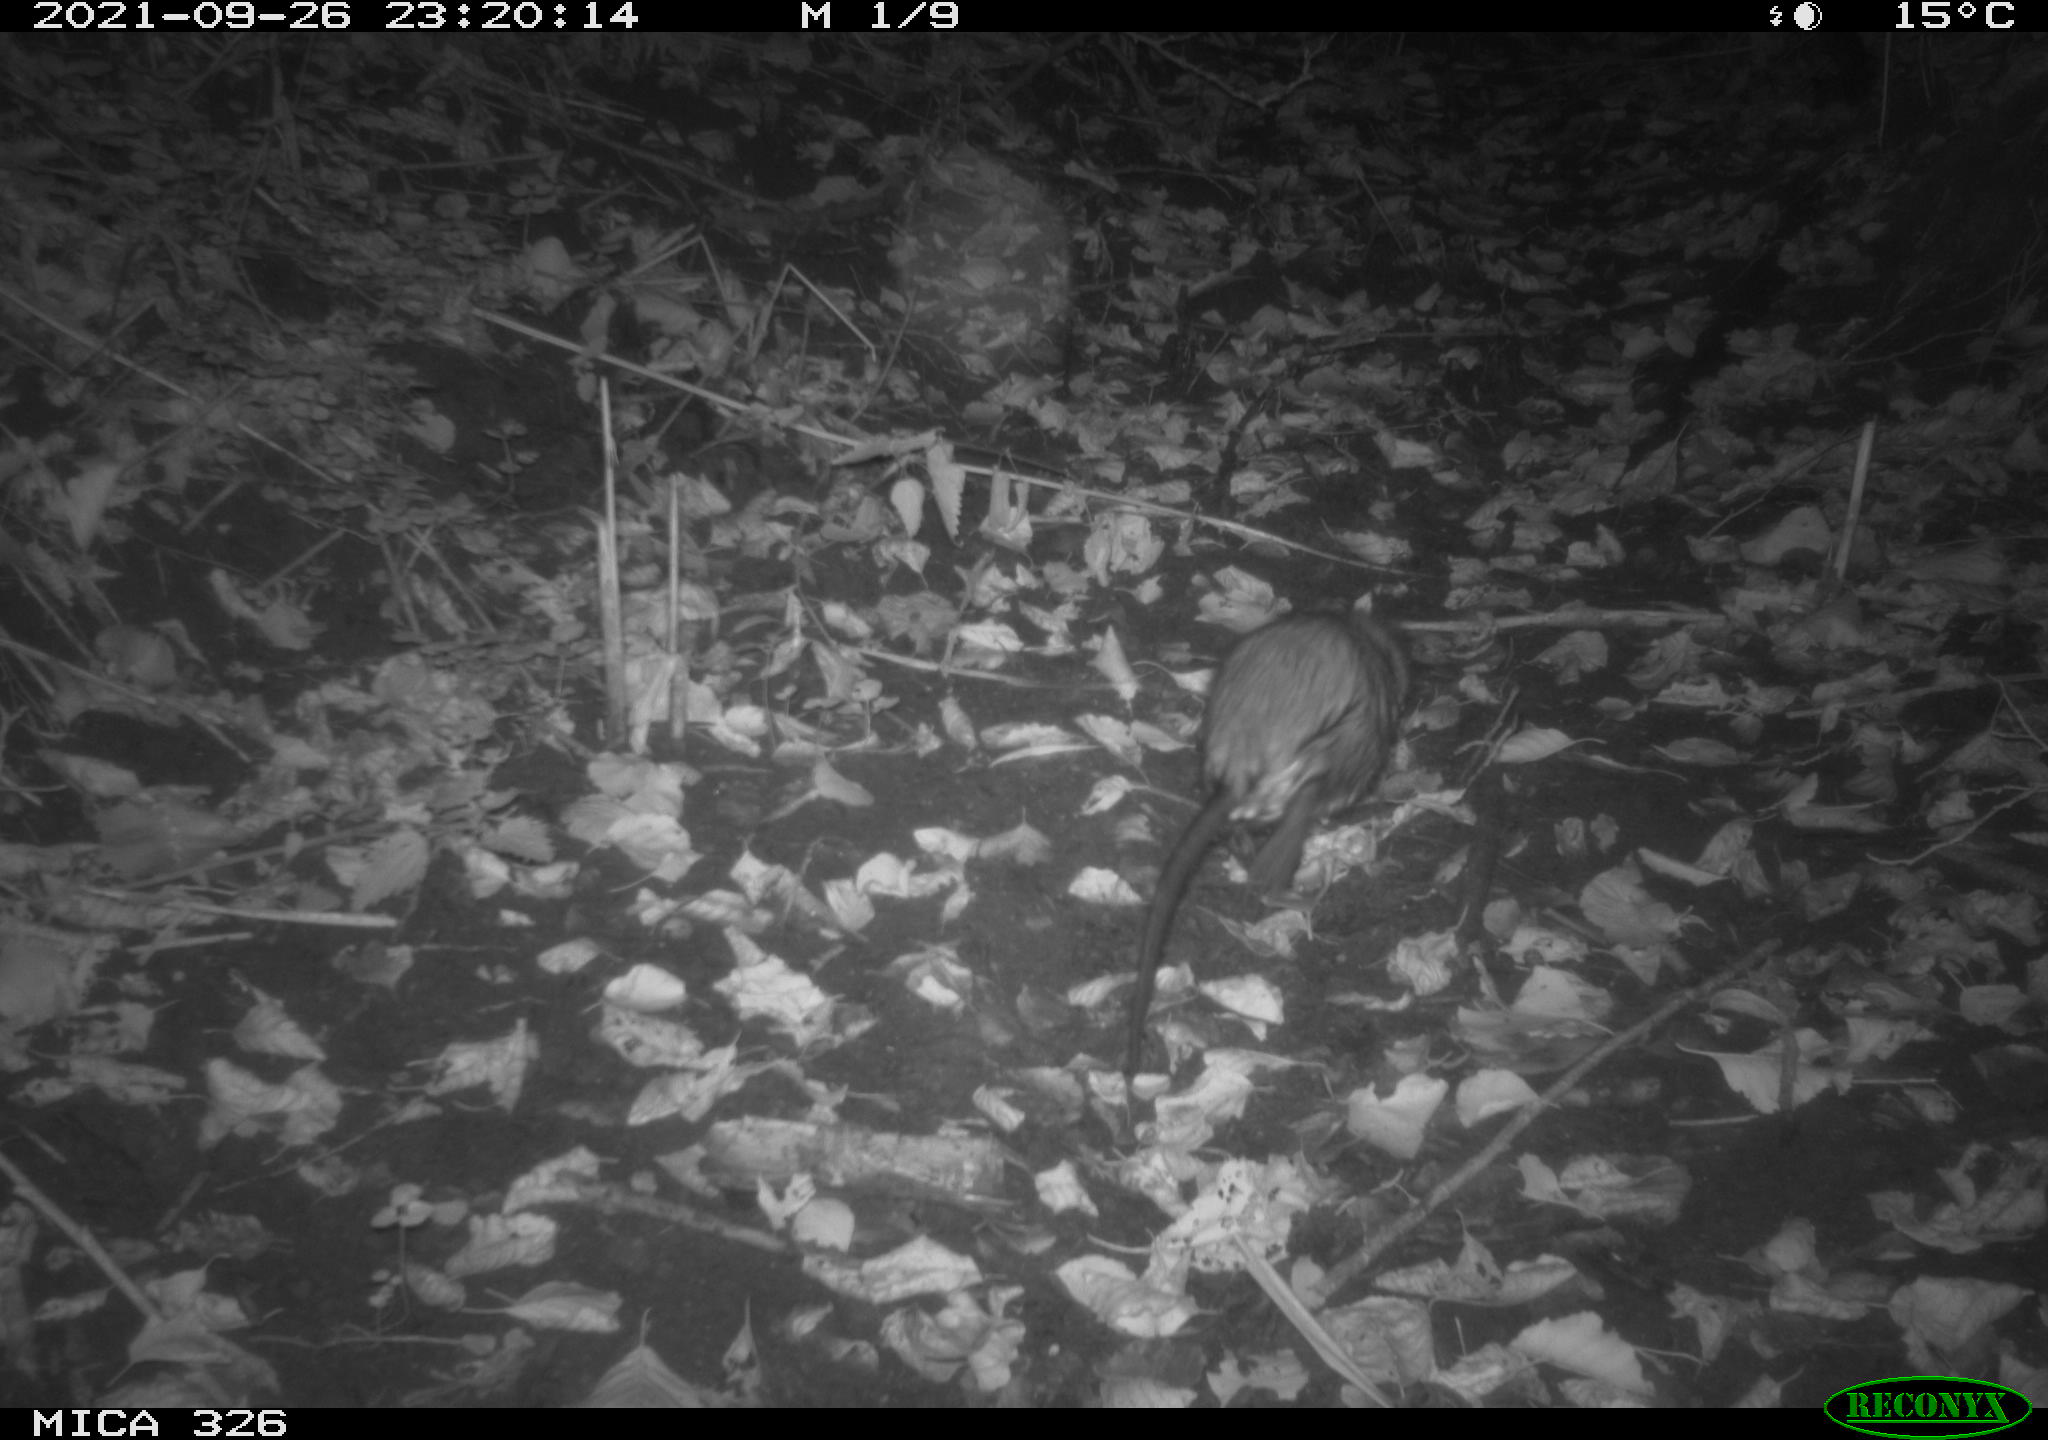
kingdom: Animalia
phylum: Chordata
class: Mammalia
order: Rodentia
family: Myocastoridae
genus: Myocastor
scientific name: Myocastor coypus
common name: Coypu
